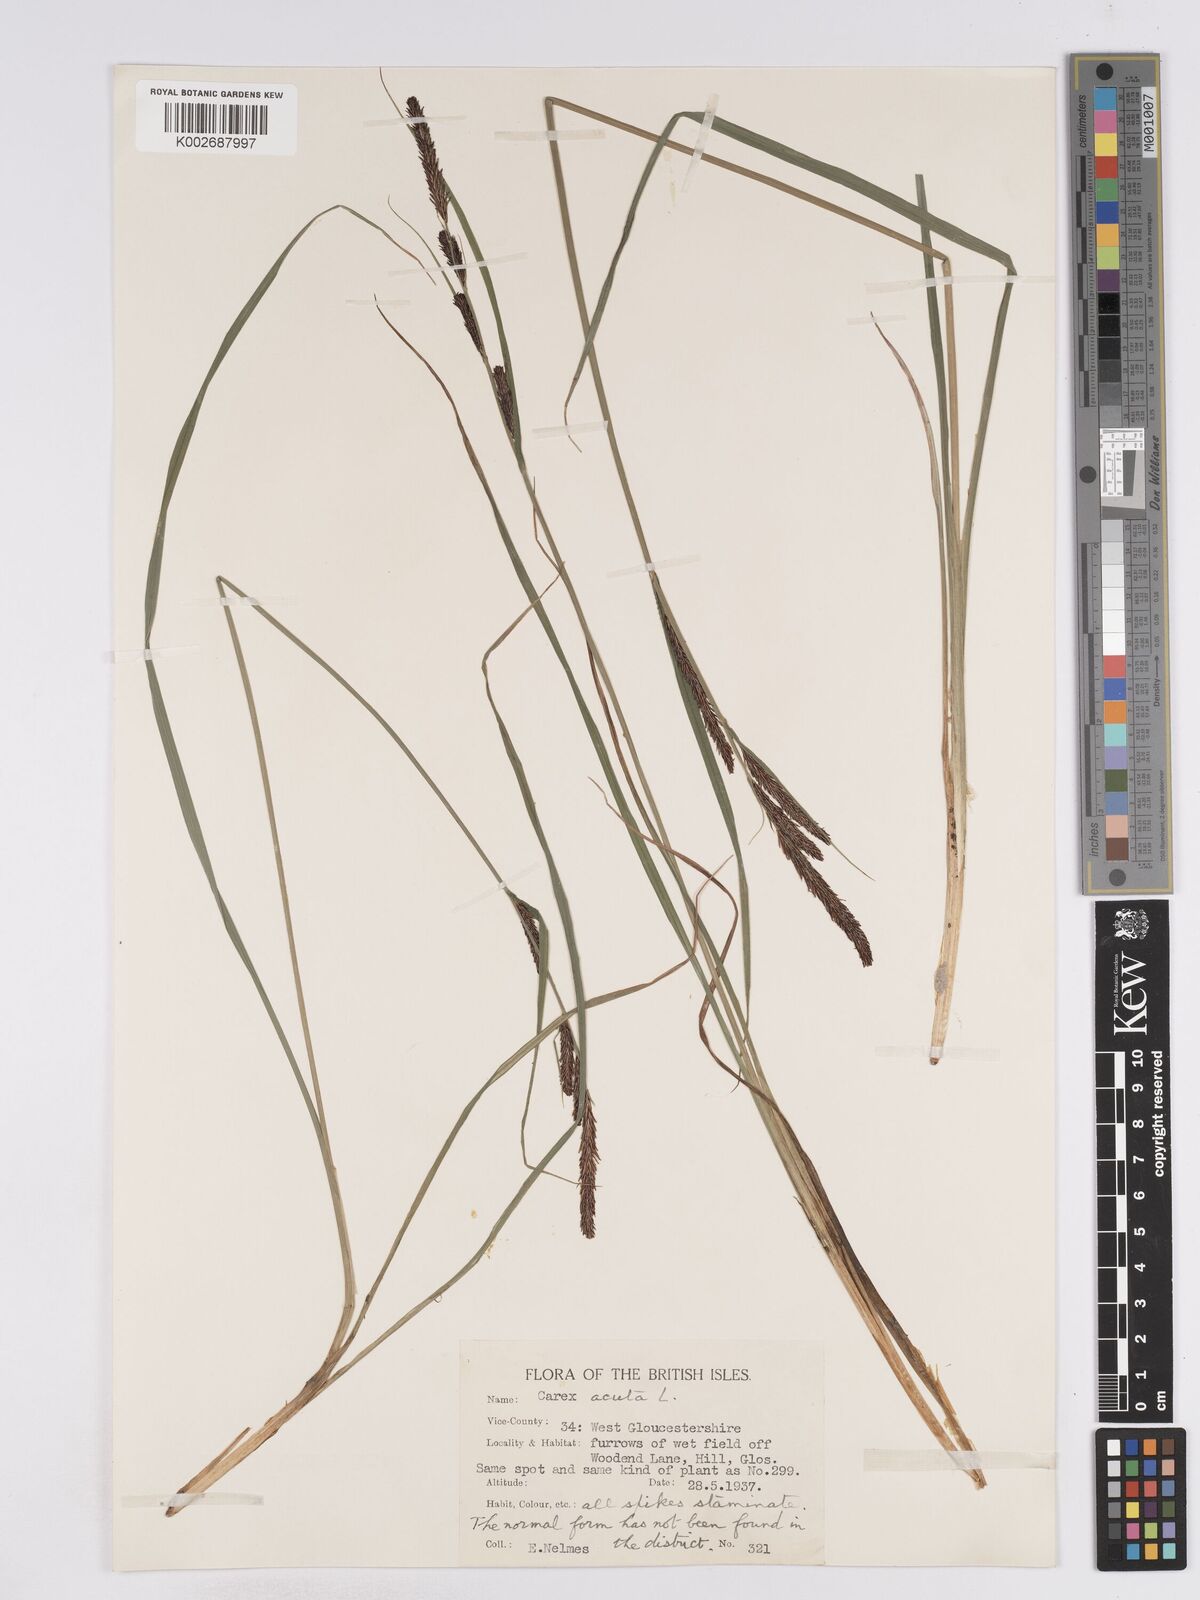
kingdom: Plantae
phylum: Tracheophyta
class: Liliopsida
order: Poales
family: Cyperaceae
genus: Carex
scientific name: Carex acuta
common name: Slender tufted-sedge
